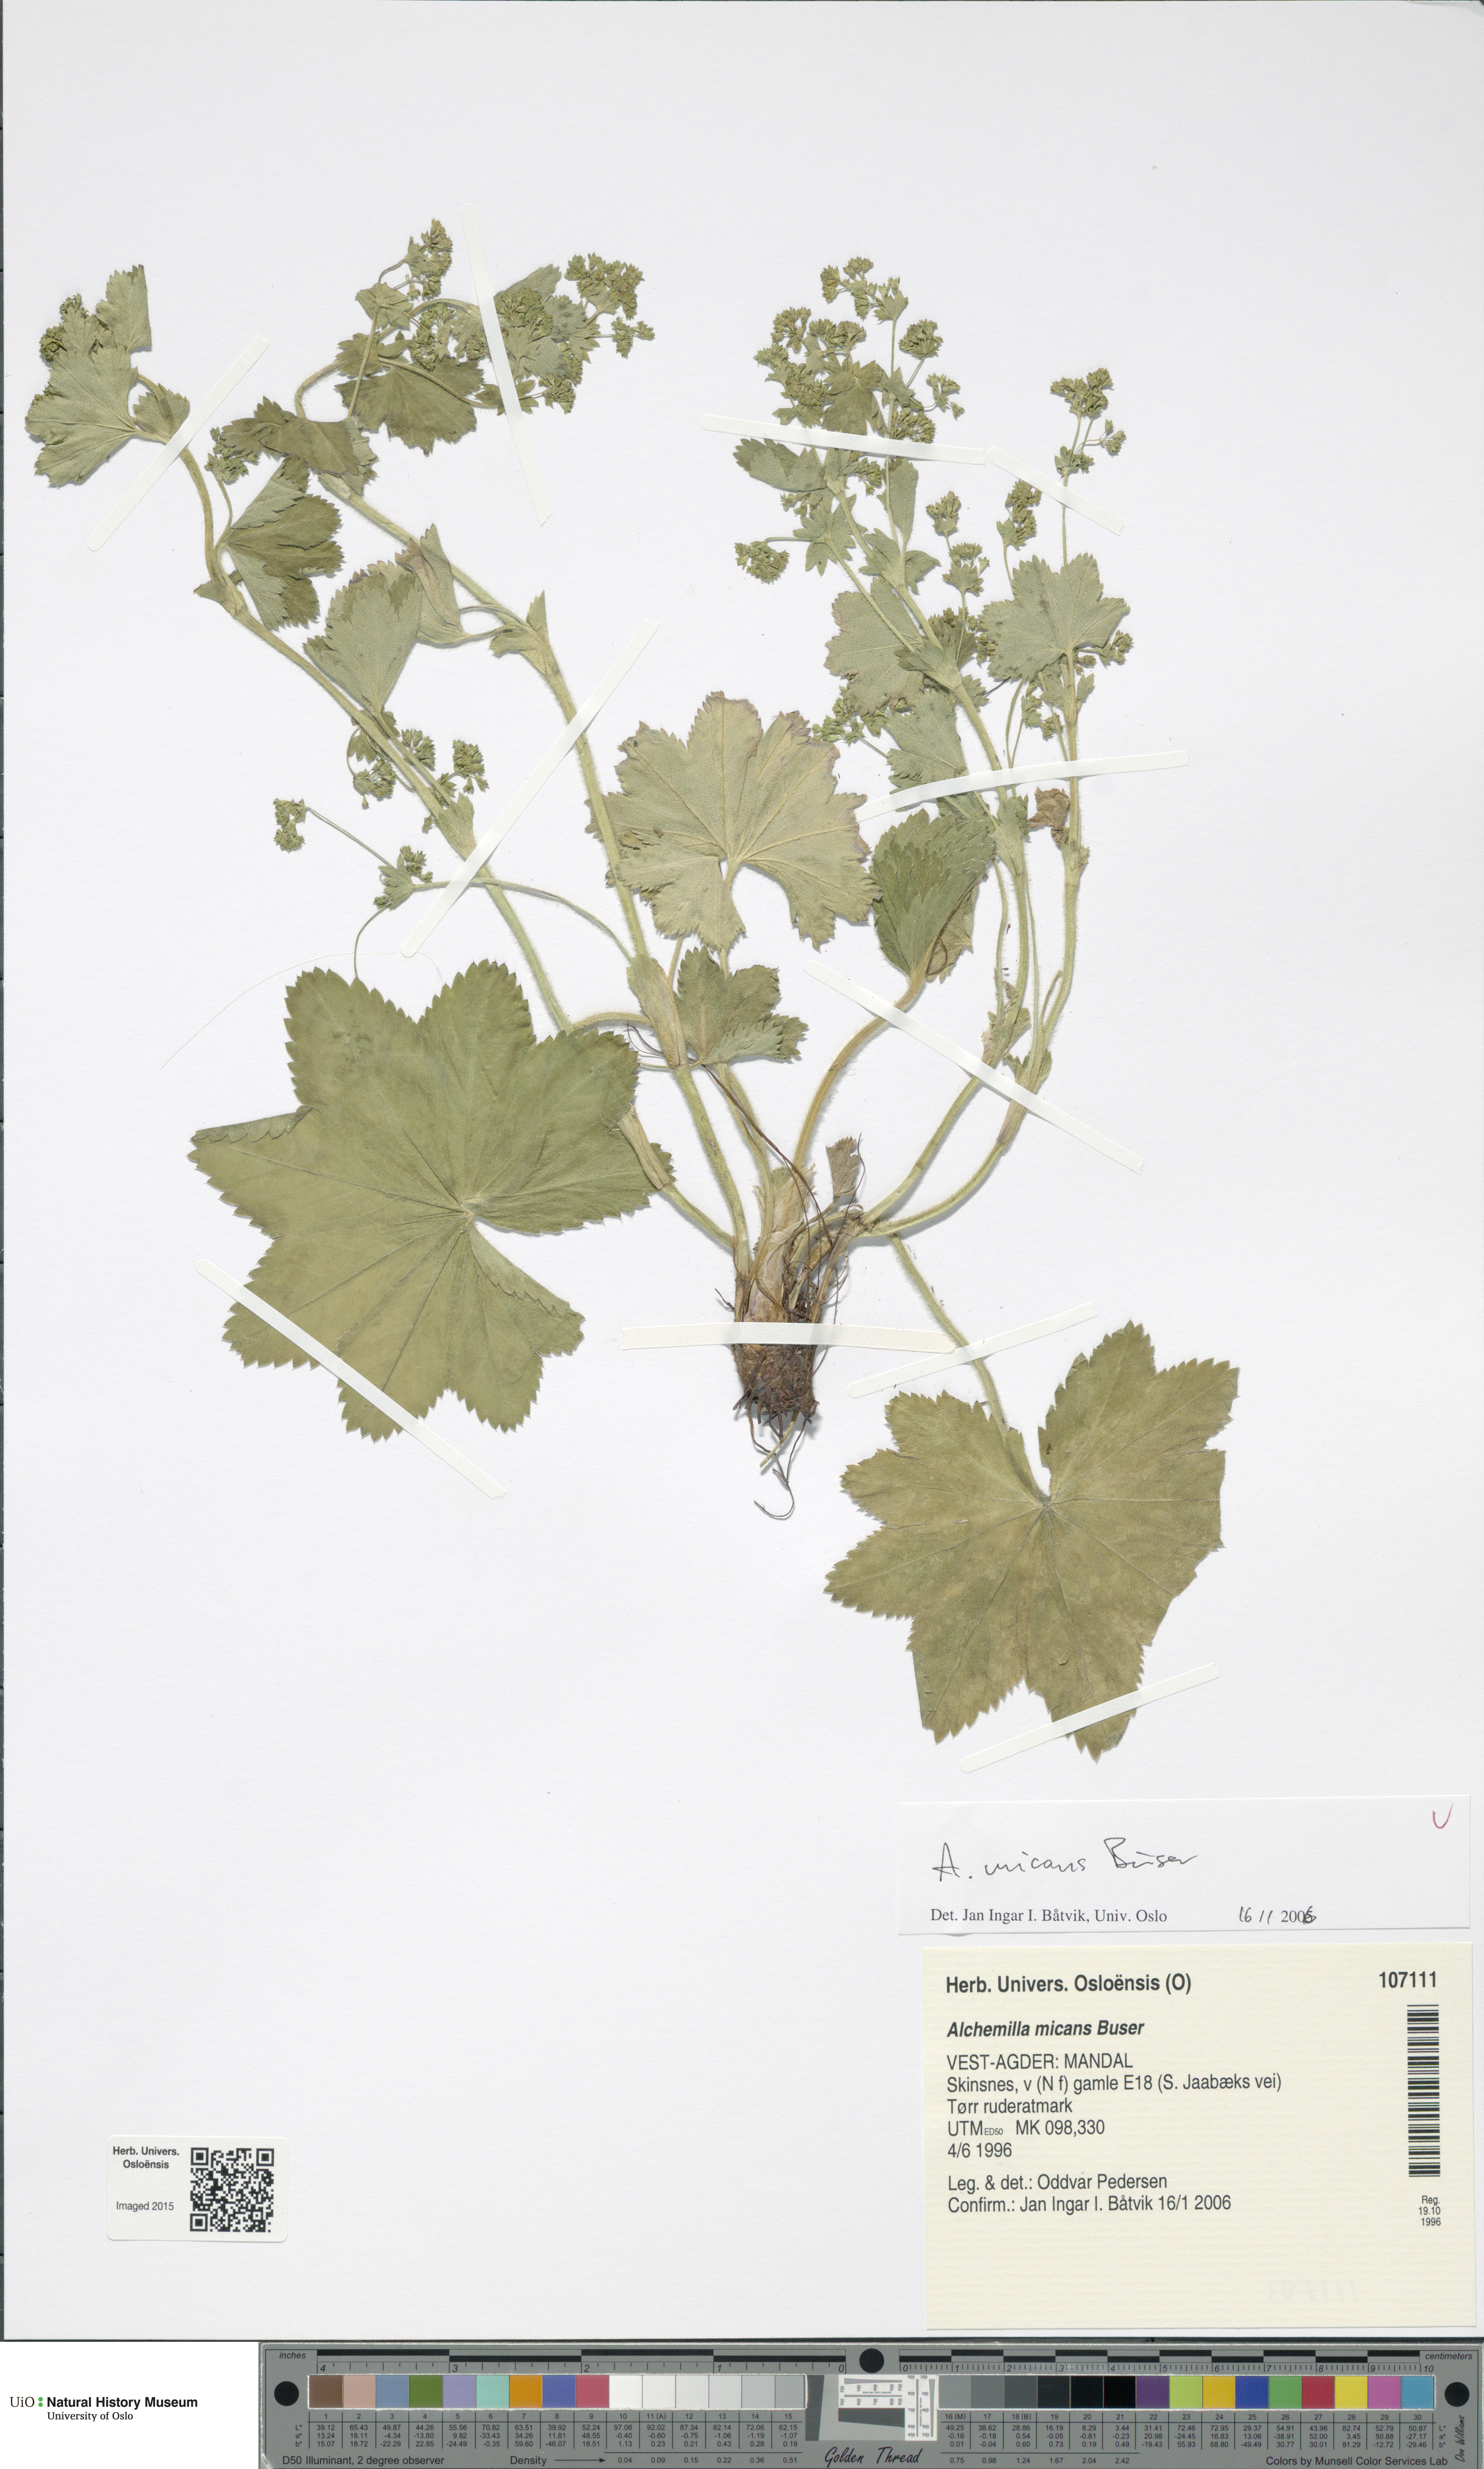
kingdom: Plantae
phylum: Tracheophyta
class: Magnoliopsida
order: Rosales
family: Rosaceae
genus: Alchemilla
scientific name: Alchemilla micans
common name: Gleaming lady's mantle
